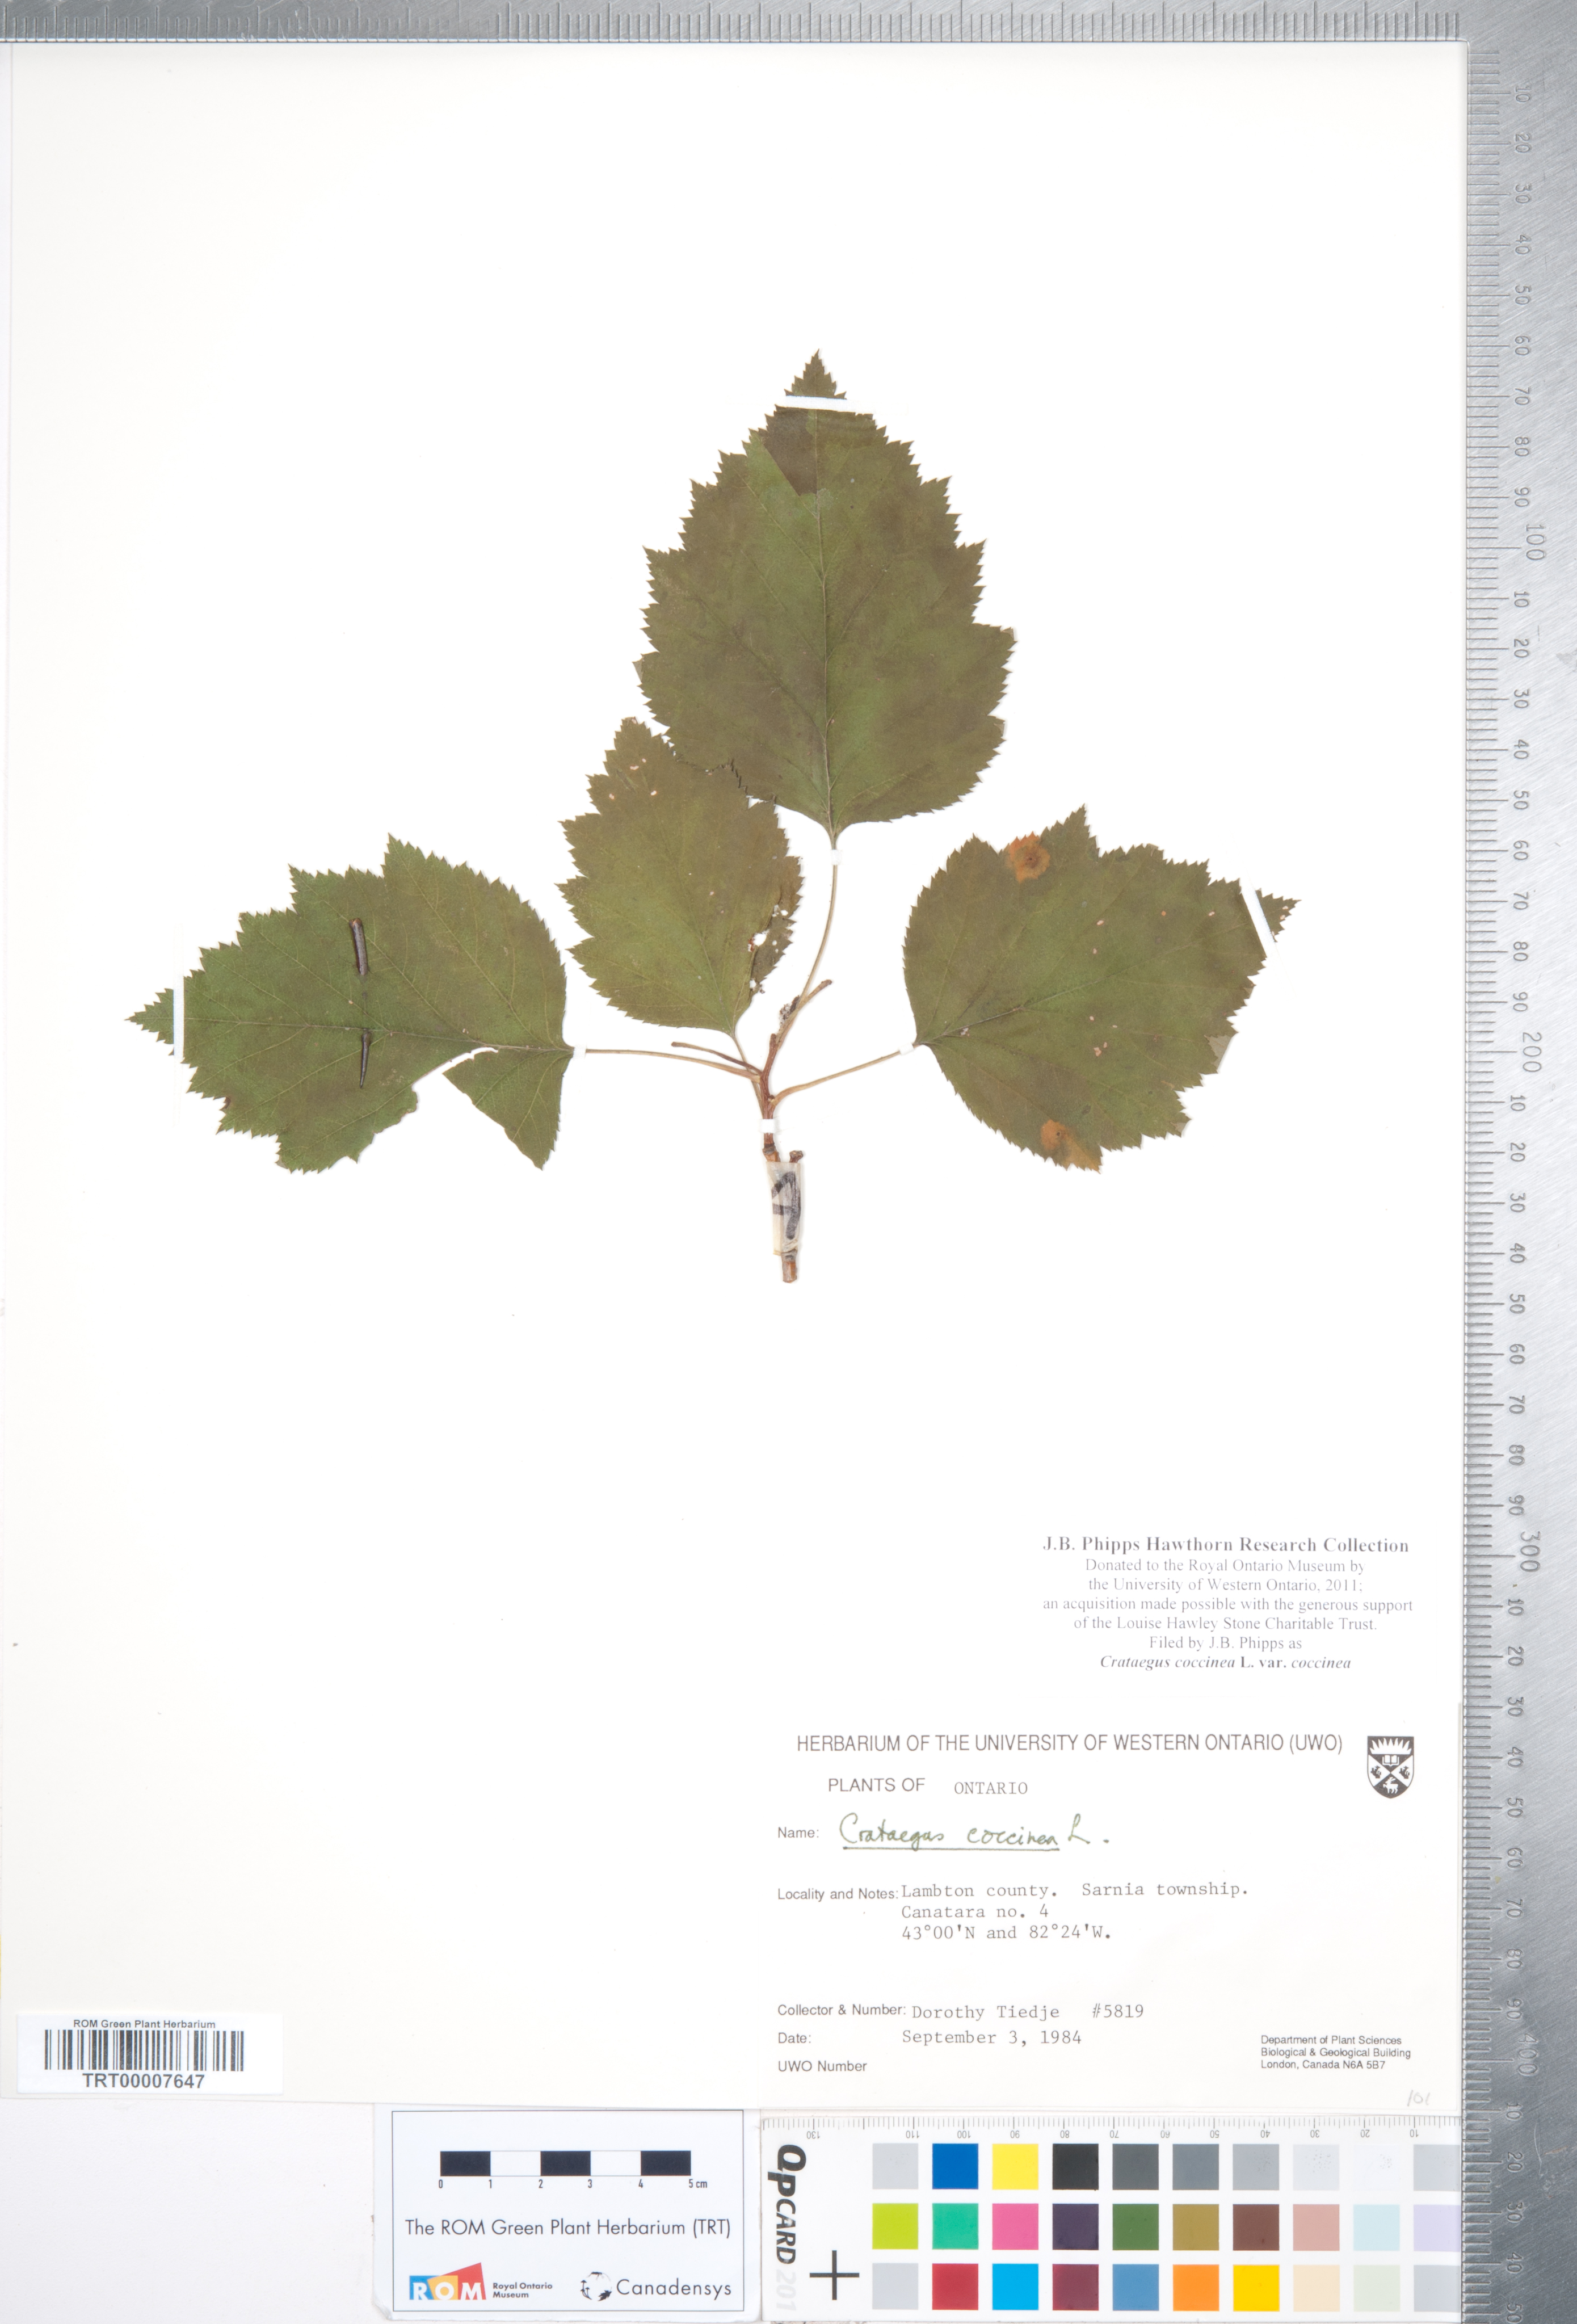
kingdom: Plantae
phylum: Tracheophyta
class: Magnoliopsida
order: Rosales
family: Rosaceae
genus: Crataegus
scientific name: Crataegus coccinea
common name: Scarlet hawthorn
